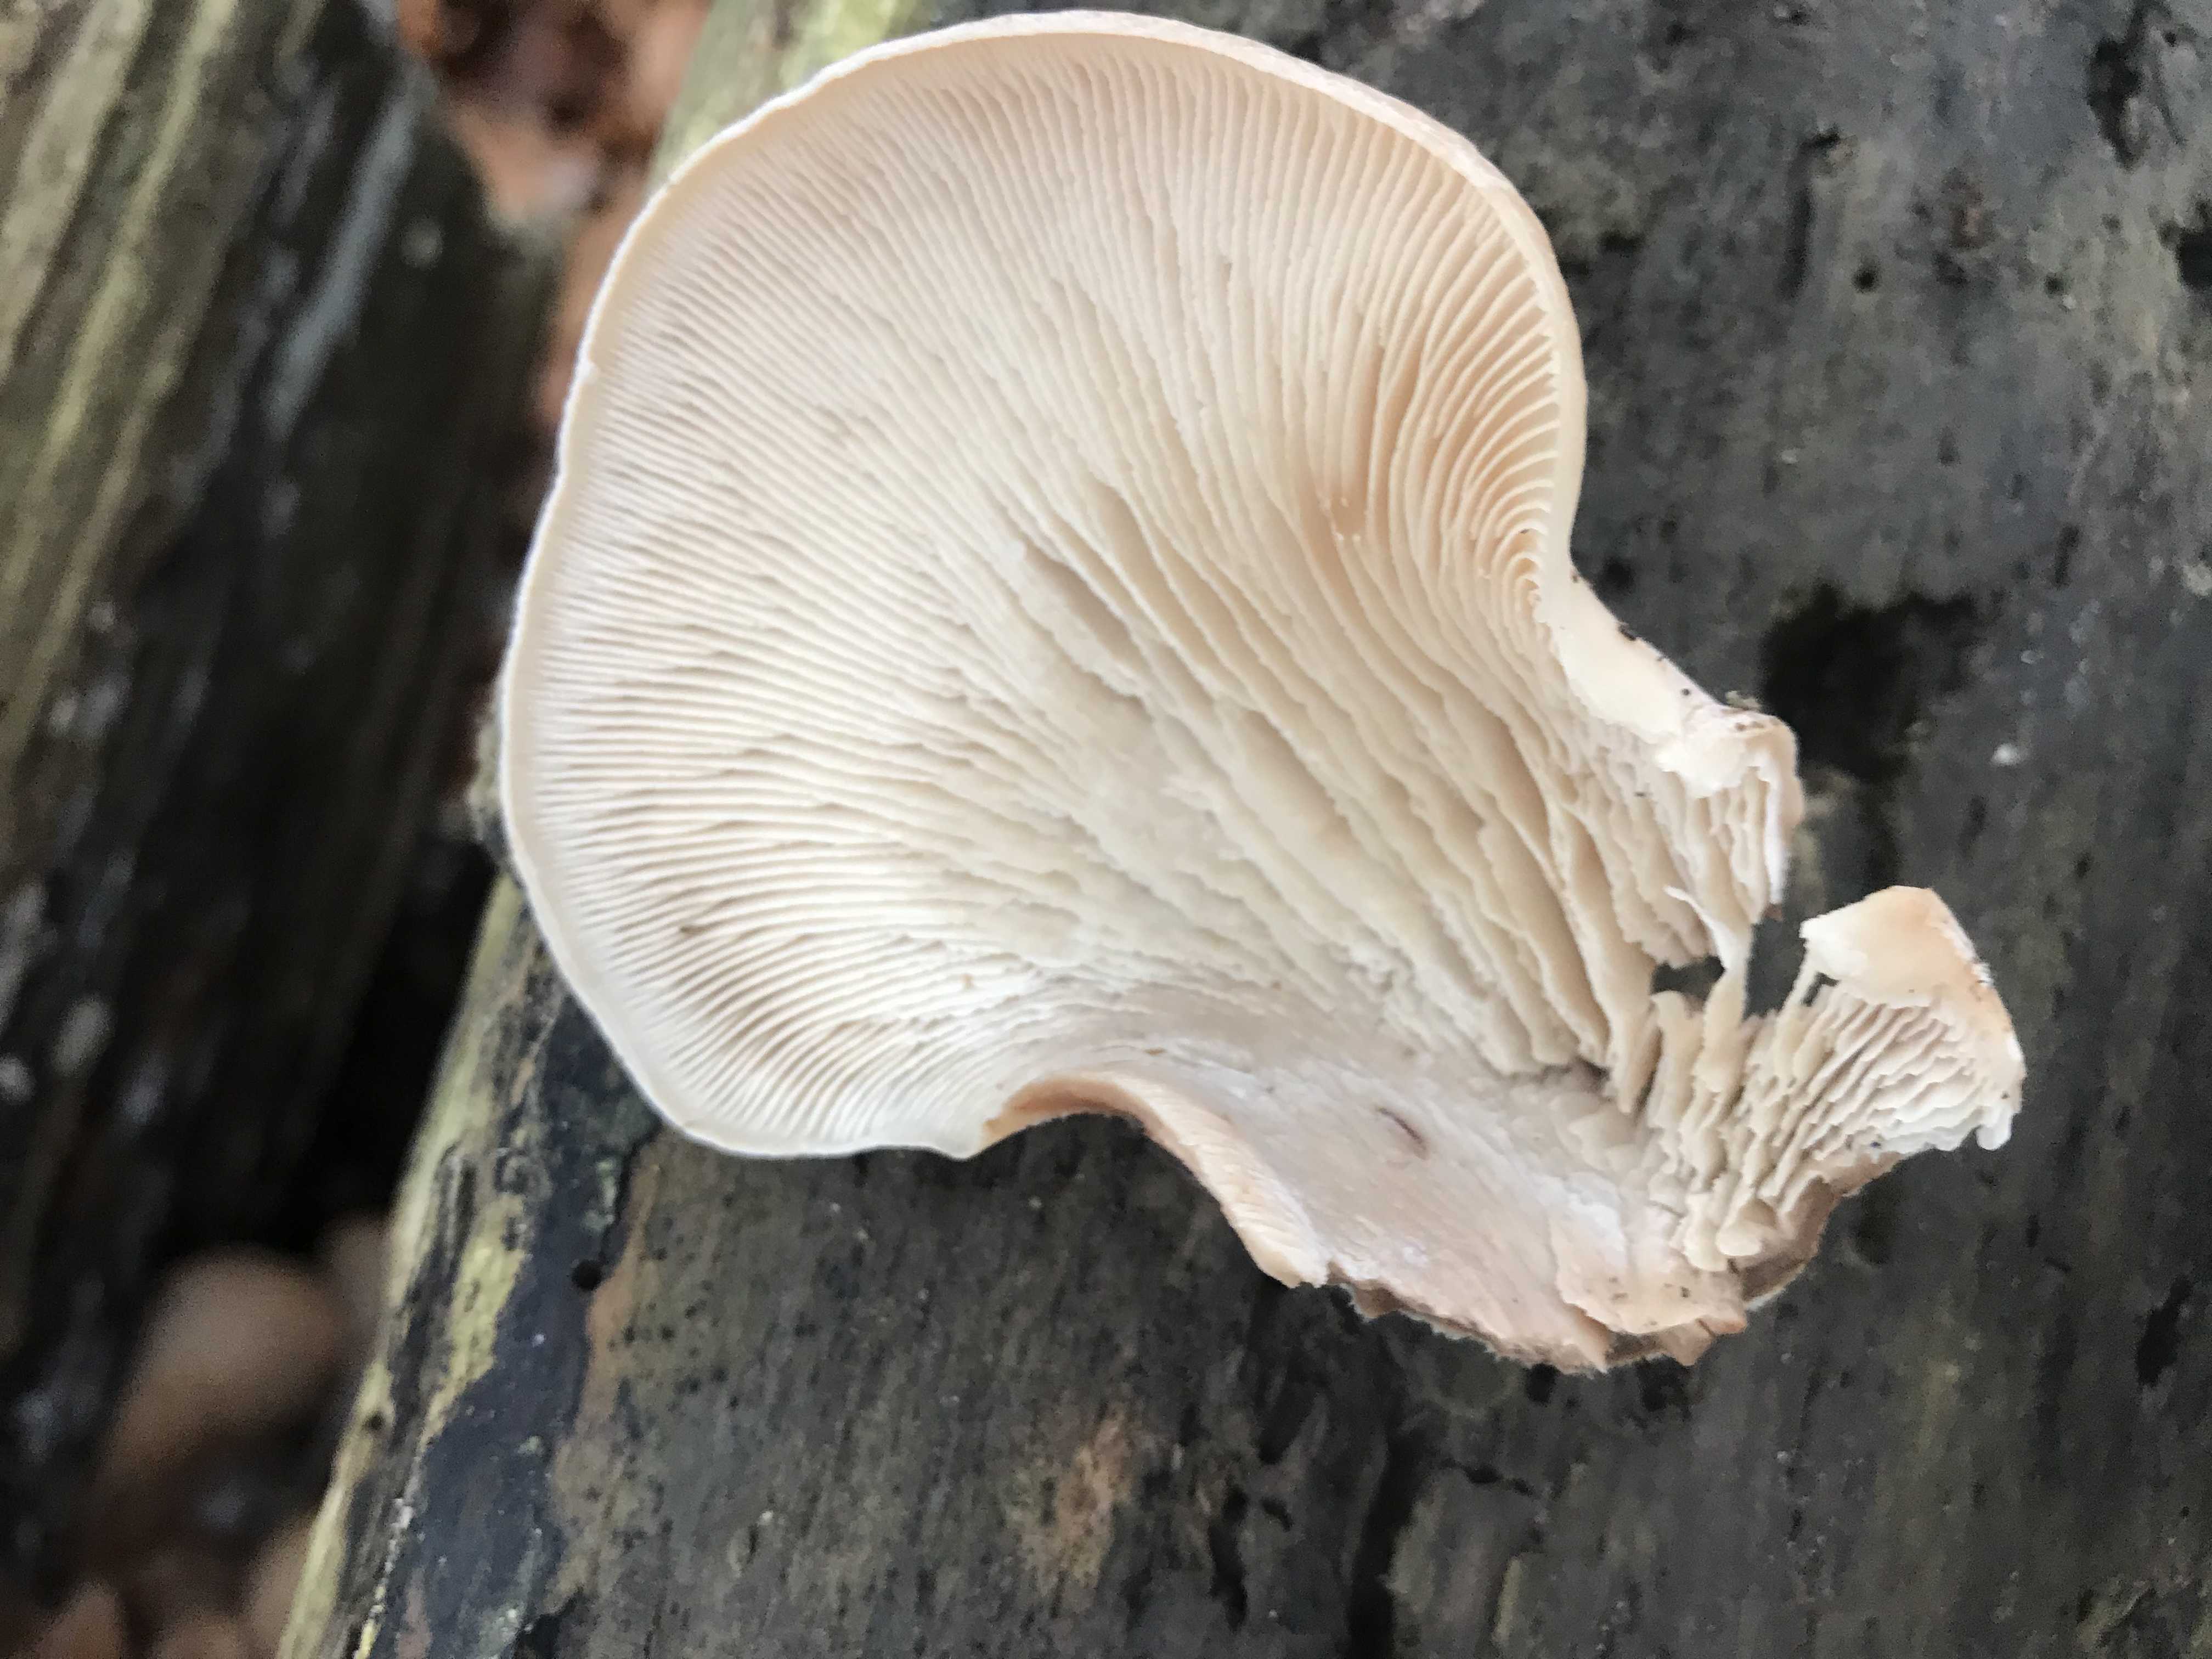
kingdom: Fungi
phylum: Basidiomycota
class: Agaricomycetes
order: Russulales
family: Auriscalpiaceae
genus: Lentinellus
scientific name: Lentinellus ursinus
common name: børstehåret savbladhat
